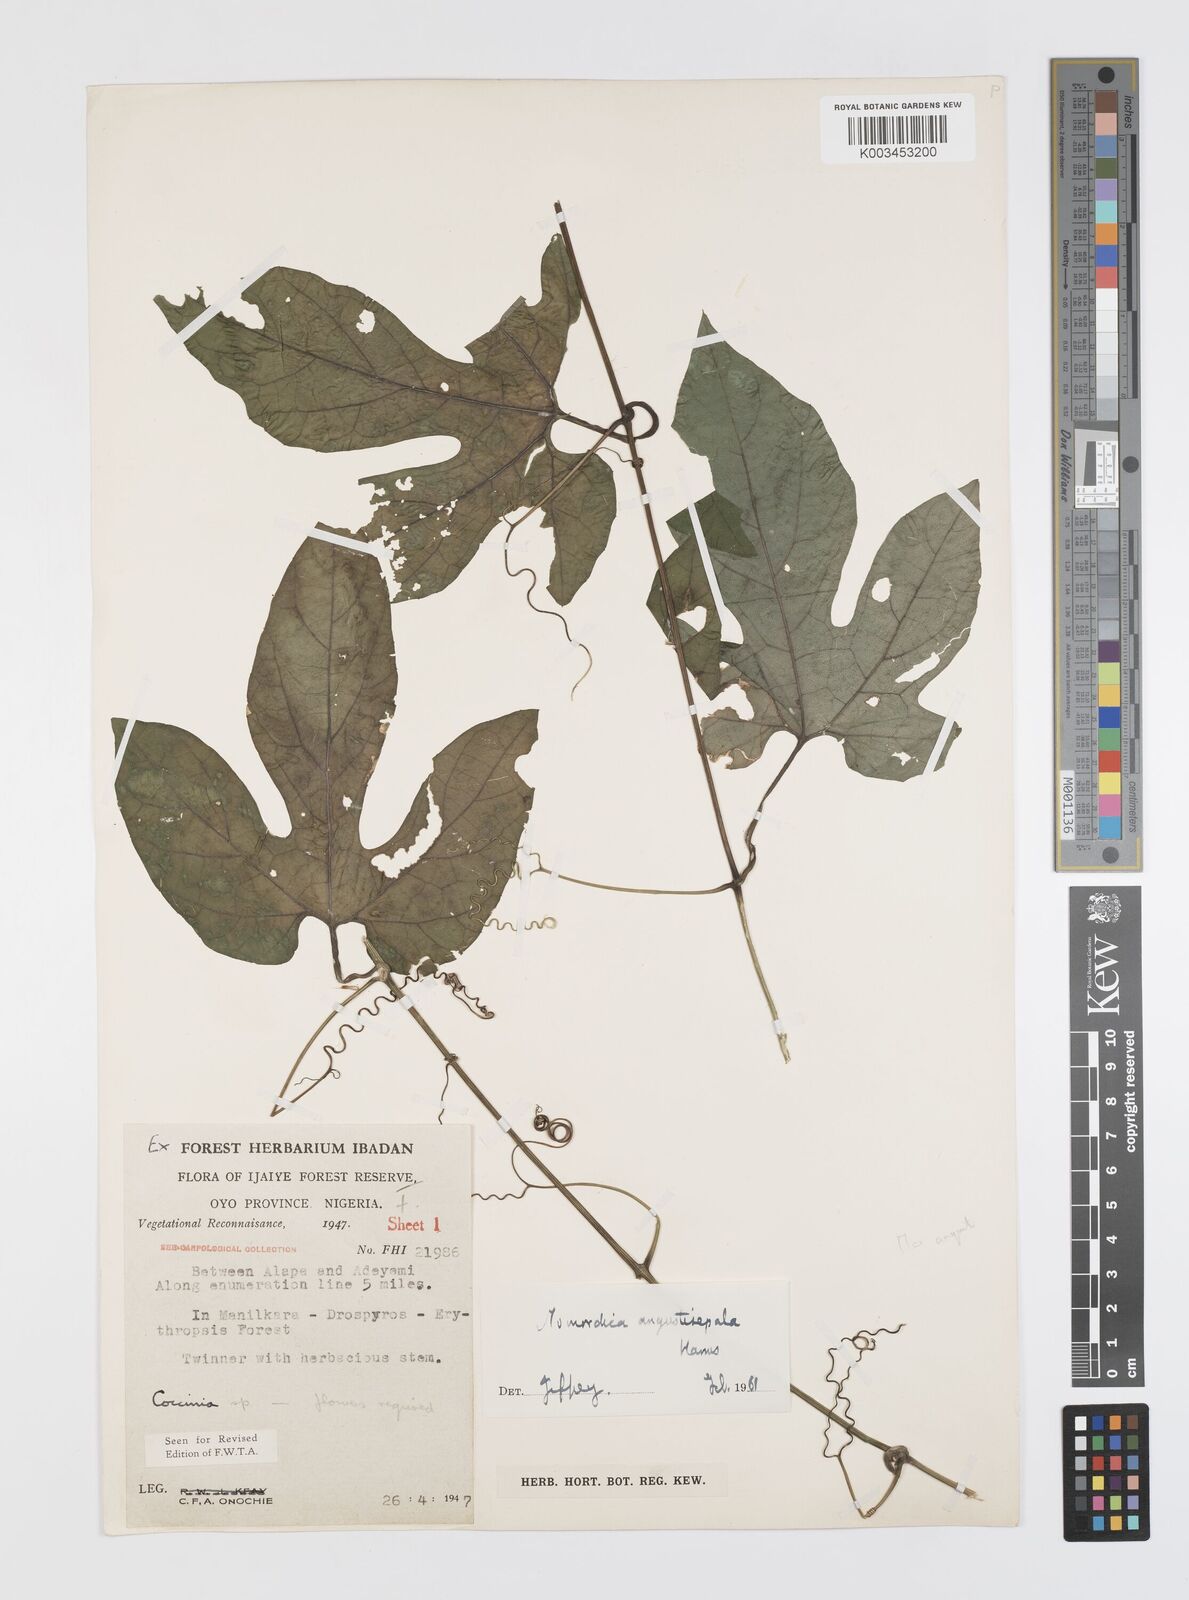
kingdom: Plantae
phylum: Tracheophyta
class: Magnoliopsida
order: Cucurbitales
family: Cucurbitaceae
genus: Momordica
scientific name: Momordica angustisepala
